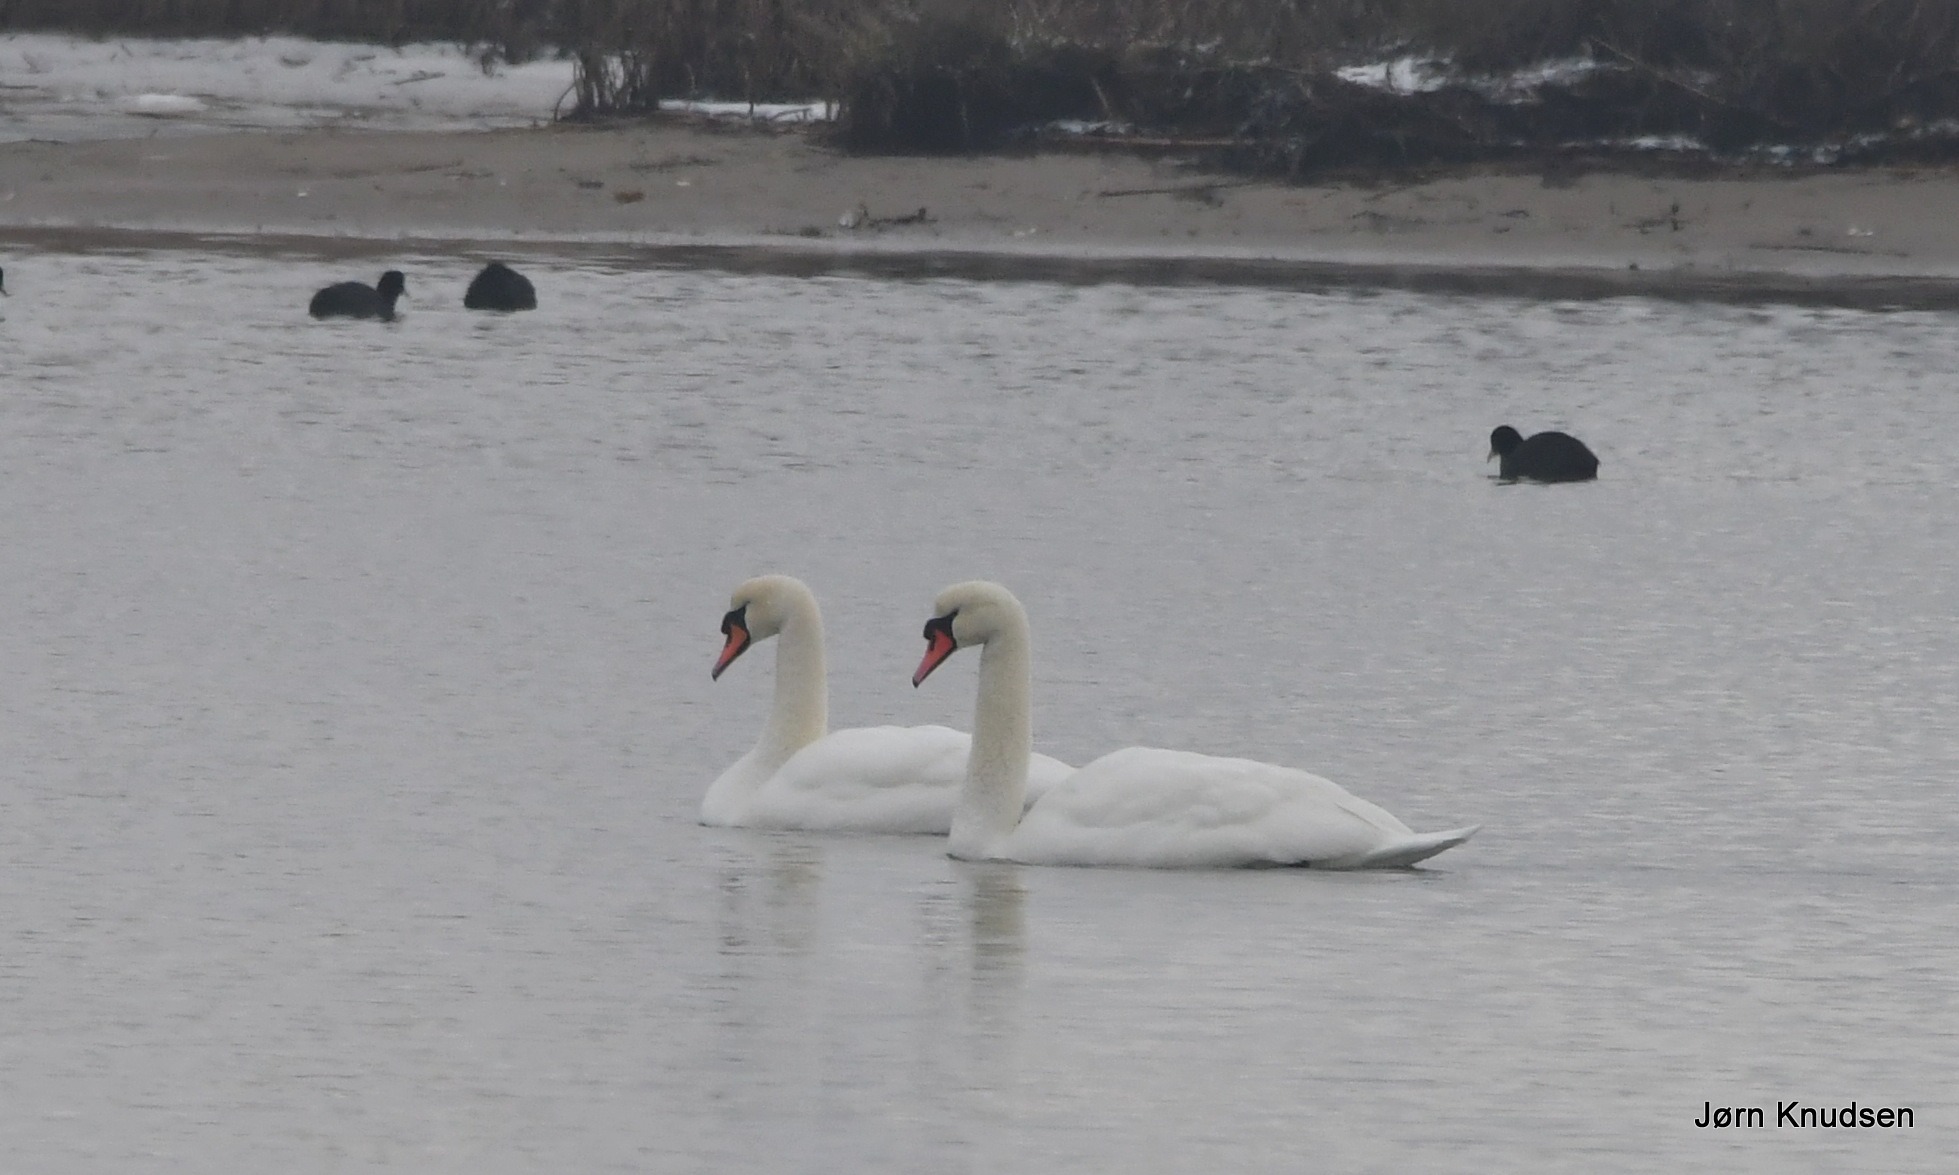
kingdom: Animalia
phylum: Chordata
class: Aves
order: Anseriformes
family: Anatidae
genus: Cygnus
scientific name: Cygnus olor
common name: Knopsvane
